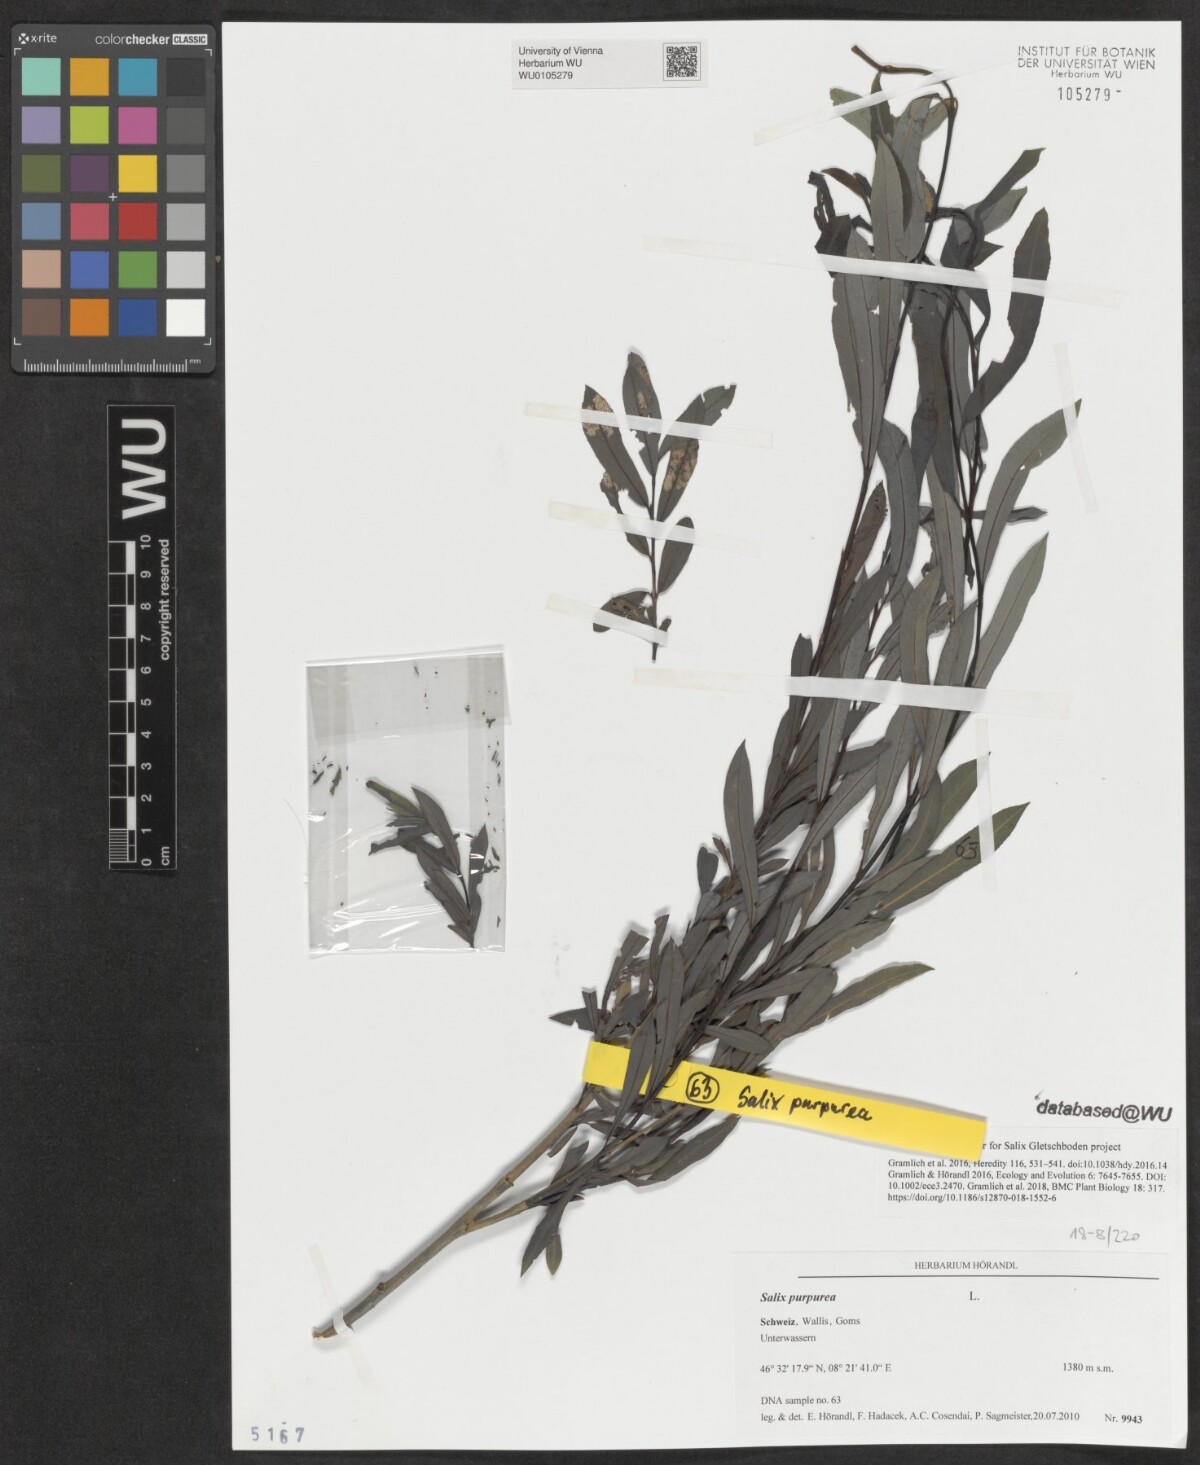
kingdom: Plantae
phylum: Tracheophyta
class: Magnoliopsida
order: Malpighiales
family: Salicaceae
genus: Salix
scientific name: Salix purpurea
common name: Purple willow
